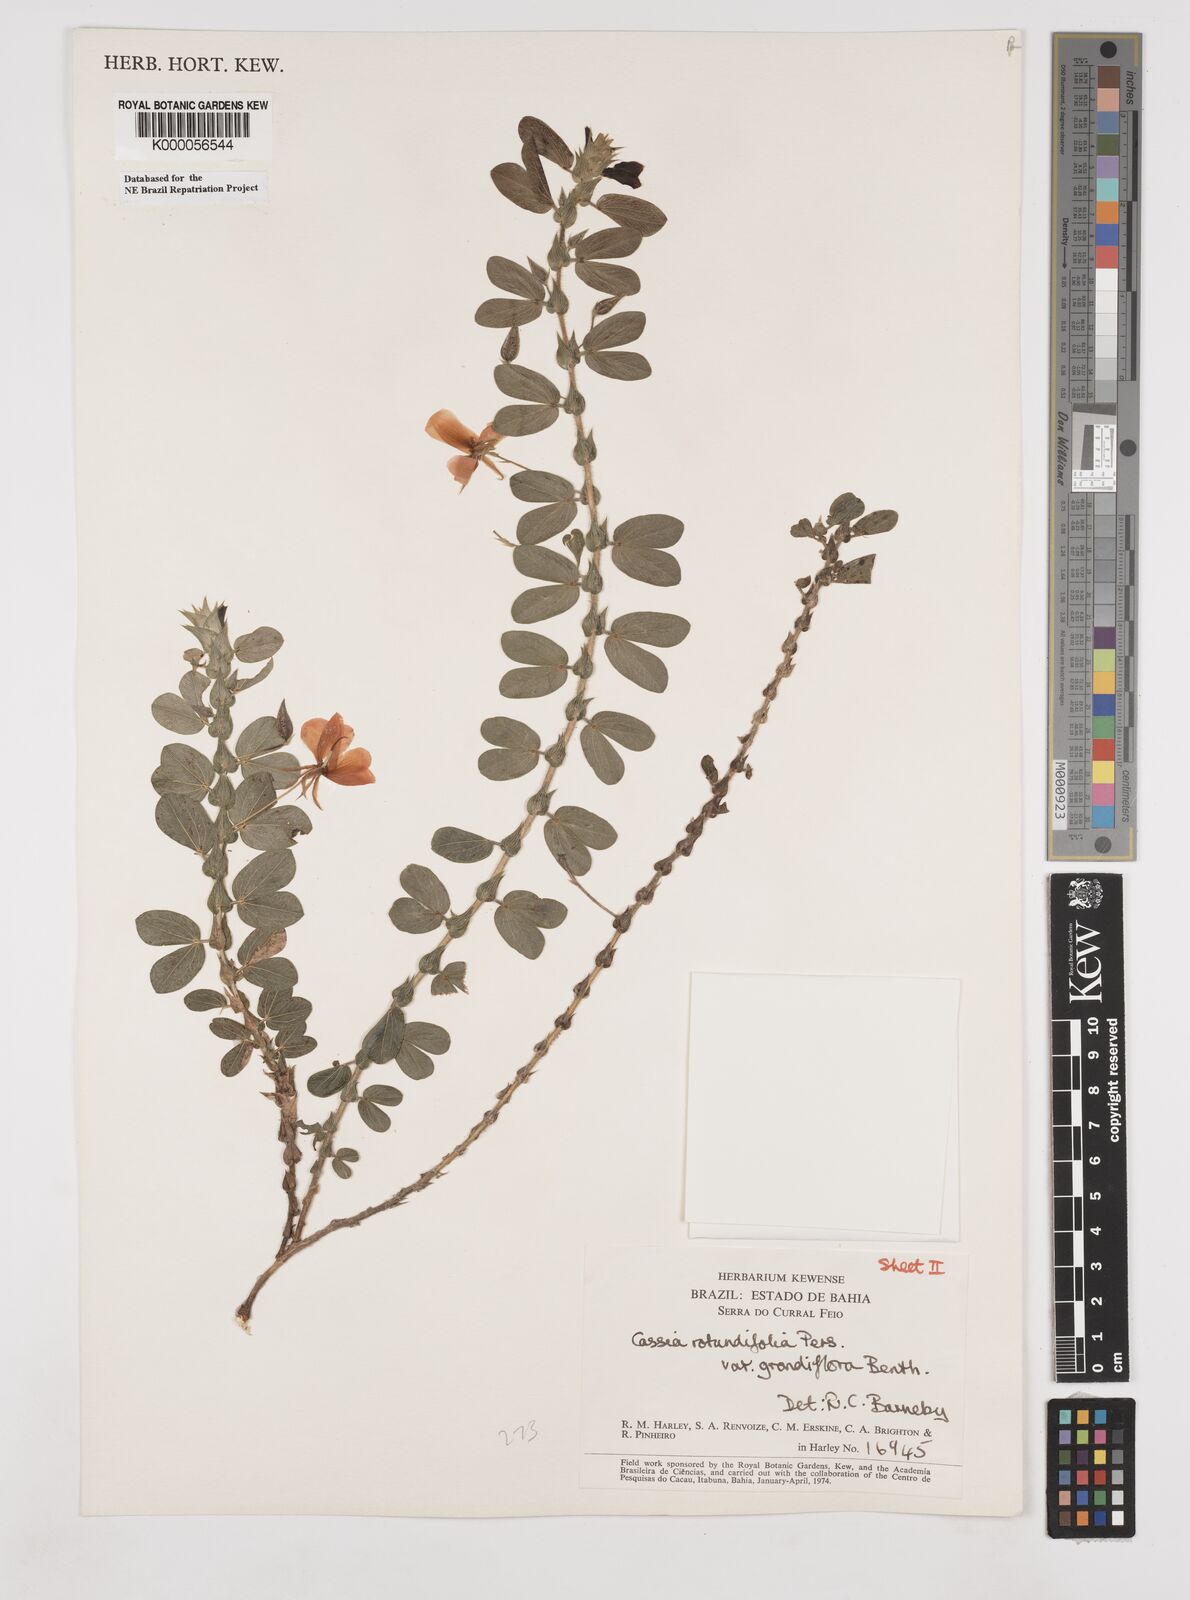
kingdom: Plantae
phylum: Tracheophyta
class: Magnoliopsida
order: Fabales
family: Fabaceae
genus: Chamaecrista
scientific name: Chamaecrista rotundifolia
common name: Round-leaf cassia
